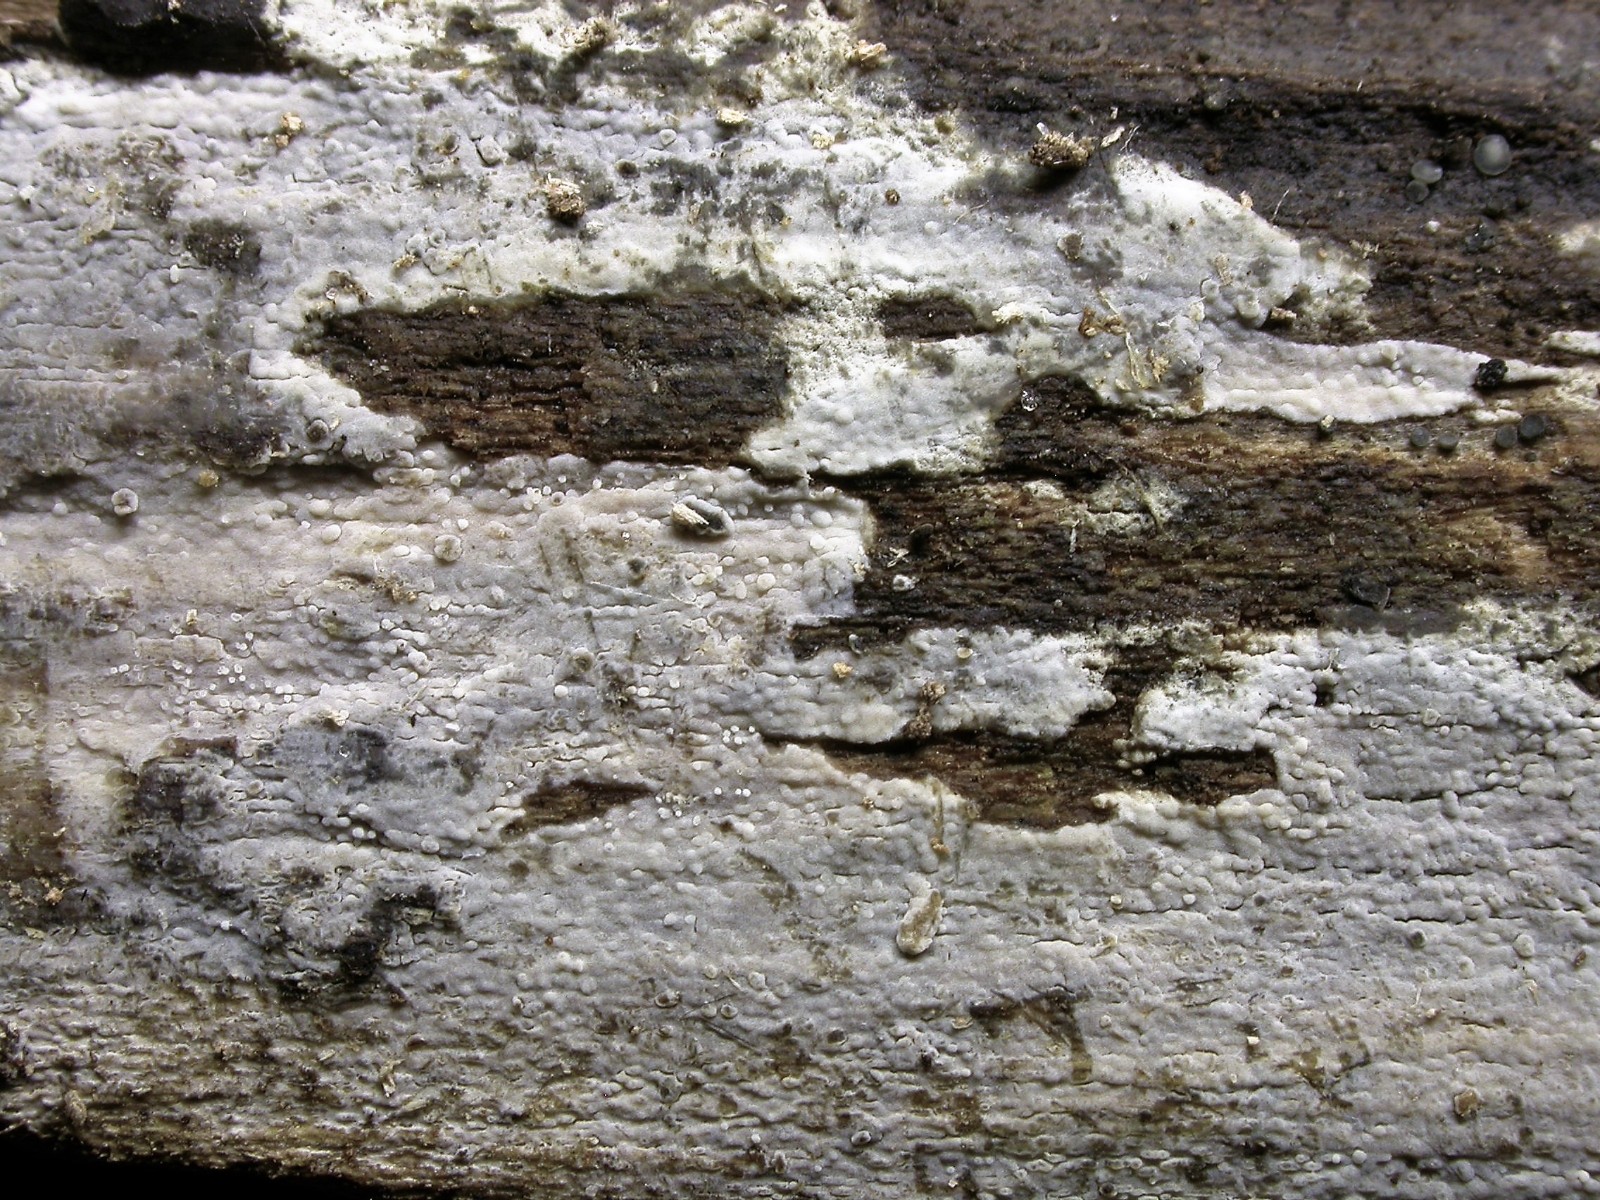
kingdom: Fungi
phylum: Basidiomycota
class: Agaricomycetes
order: Russulales
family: Xenasmataceae
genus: Xenasma
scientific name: Xenasma tulasnelloideum
